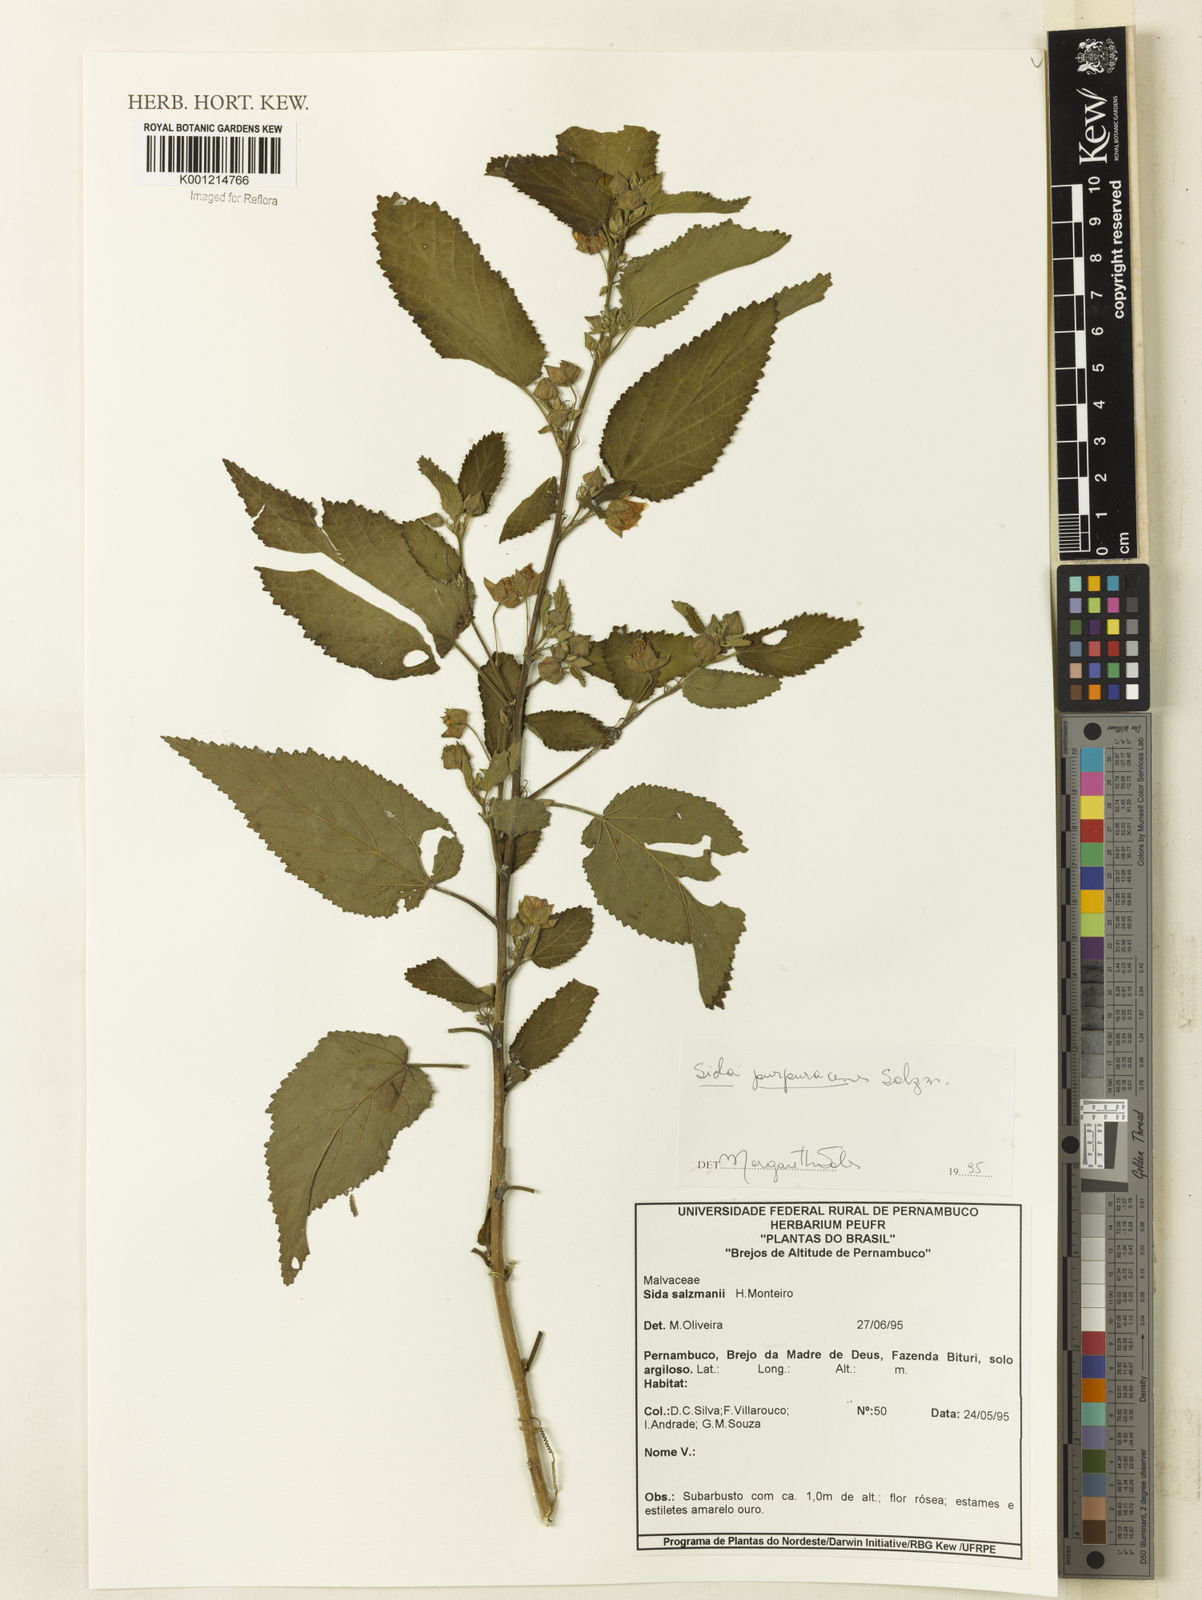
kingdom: Plantae
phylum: Tracheophyta
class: Magnoliopsida
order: Malvales
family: Malvaceae
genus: Sida
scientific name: Sida ulei
